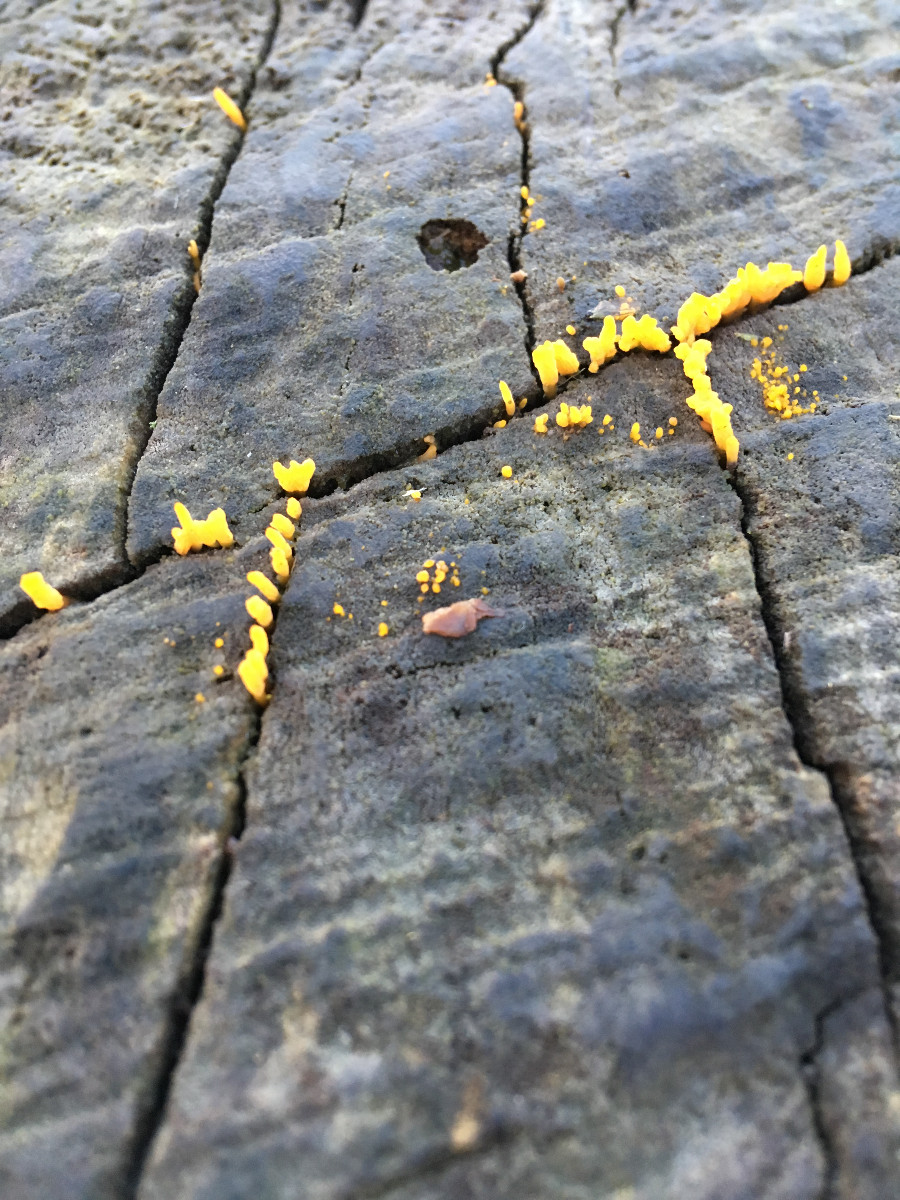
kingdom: Fungi
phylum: Basidiomycota
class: Dacrymycetes
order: Dacrymycetales
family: Dacrymycetaceae
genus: Calocera
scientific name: Calocera cornea
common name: liden guldgaffel
